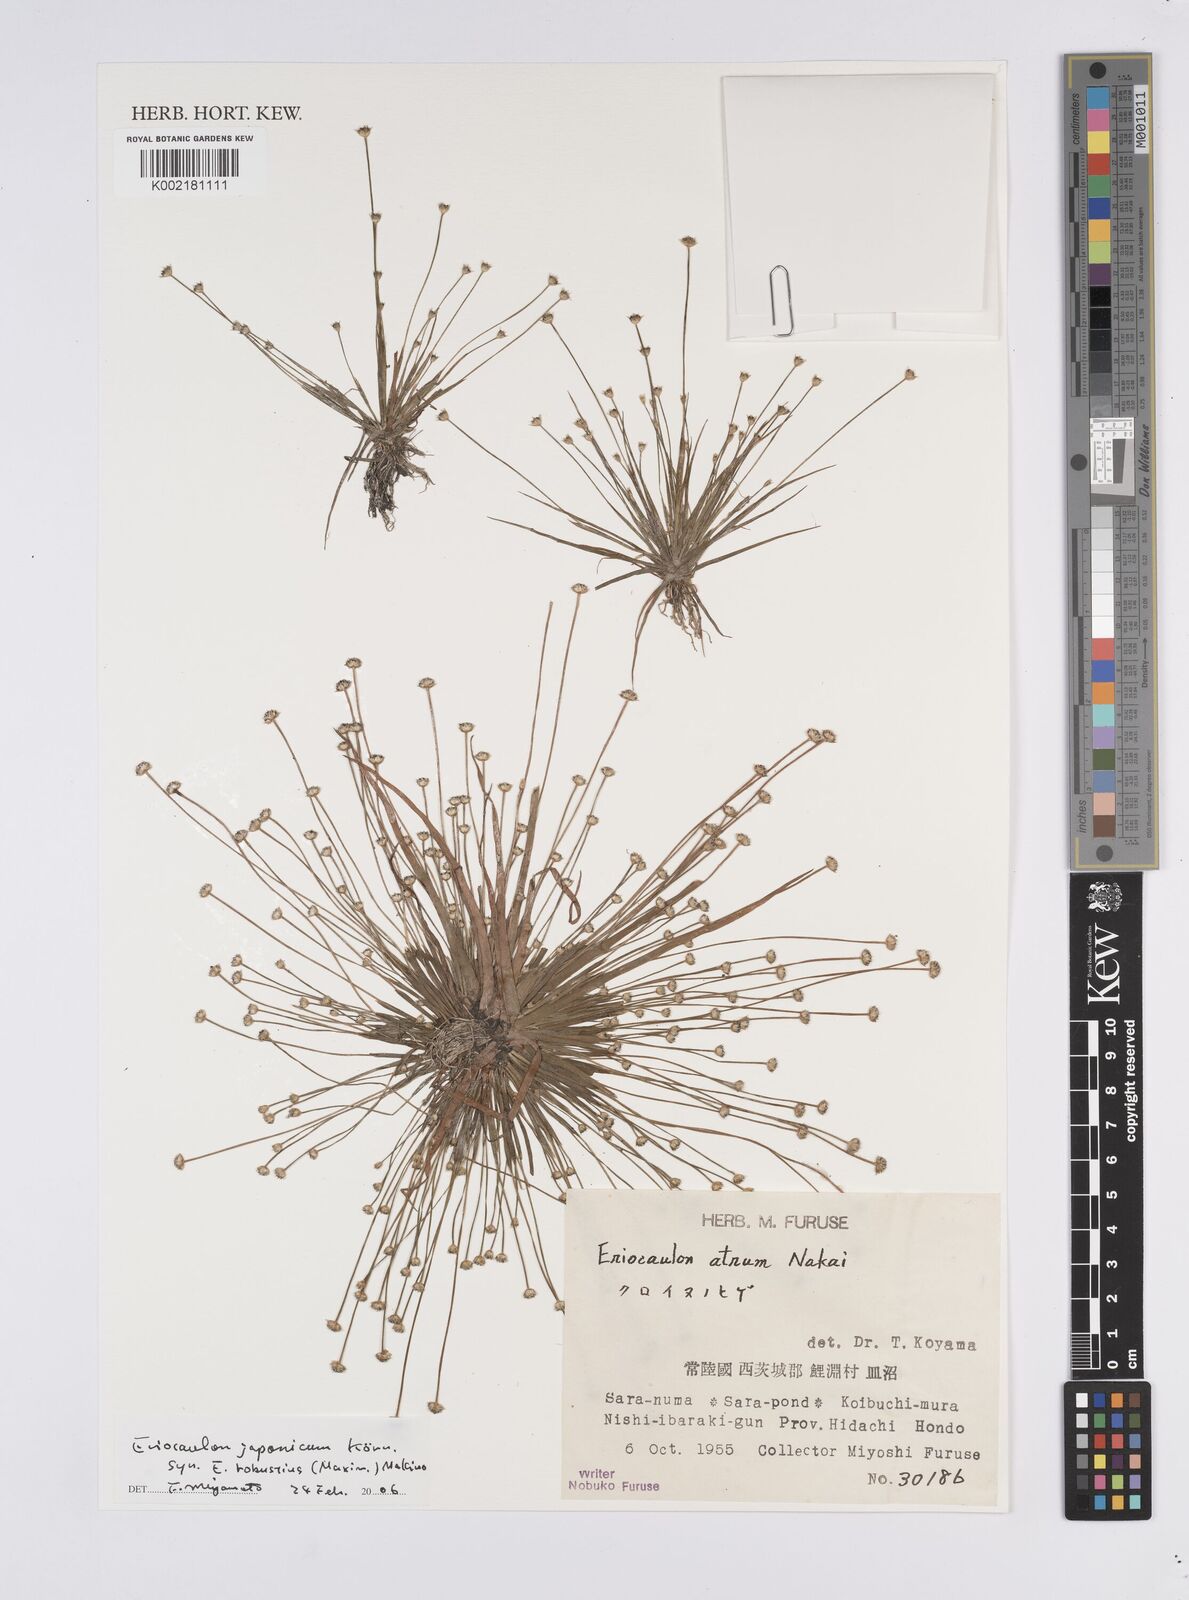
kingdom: Plantae
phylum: Tracheophyta
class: Liliopsida
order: Poales
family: Eriocaulaceae
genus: Eriocaulon
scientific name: Eriocaulon atrum
